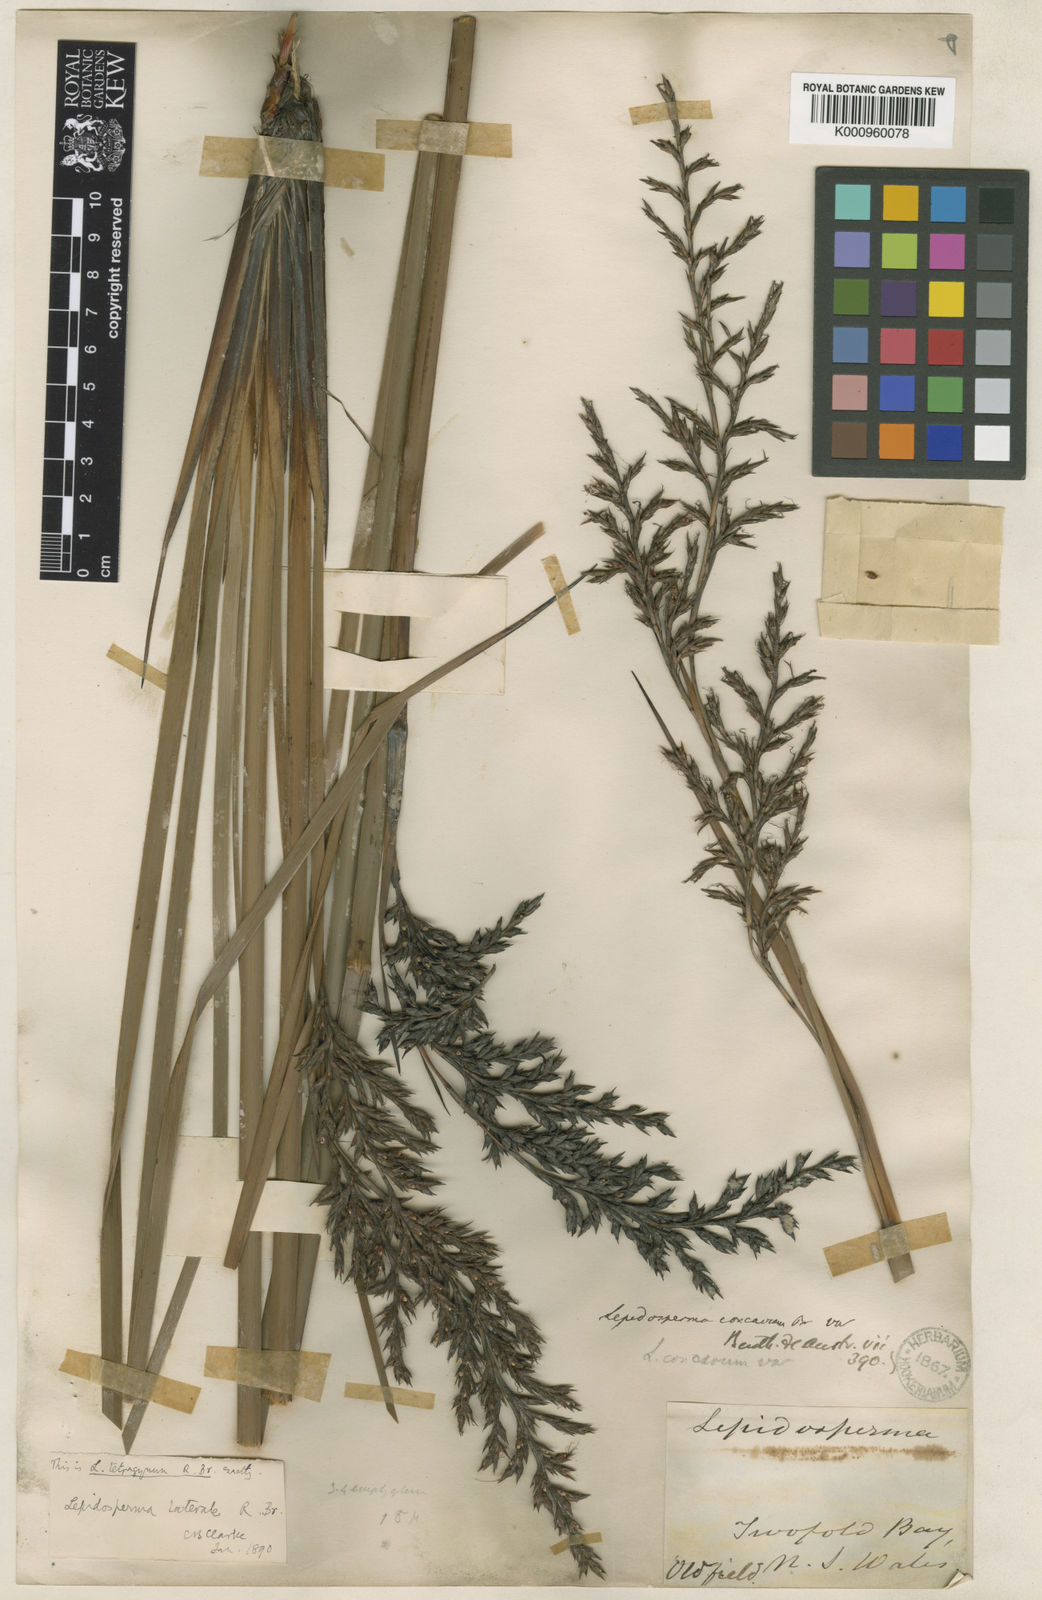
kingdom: Plantae
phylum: Tracheophyta
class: Liliopsida
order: Poales
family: Cyperaceae
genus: Lepidosperma
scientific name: Lepidosperma laterale
